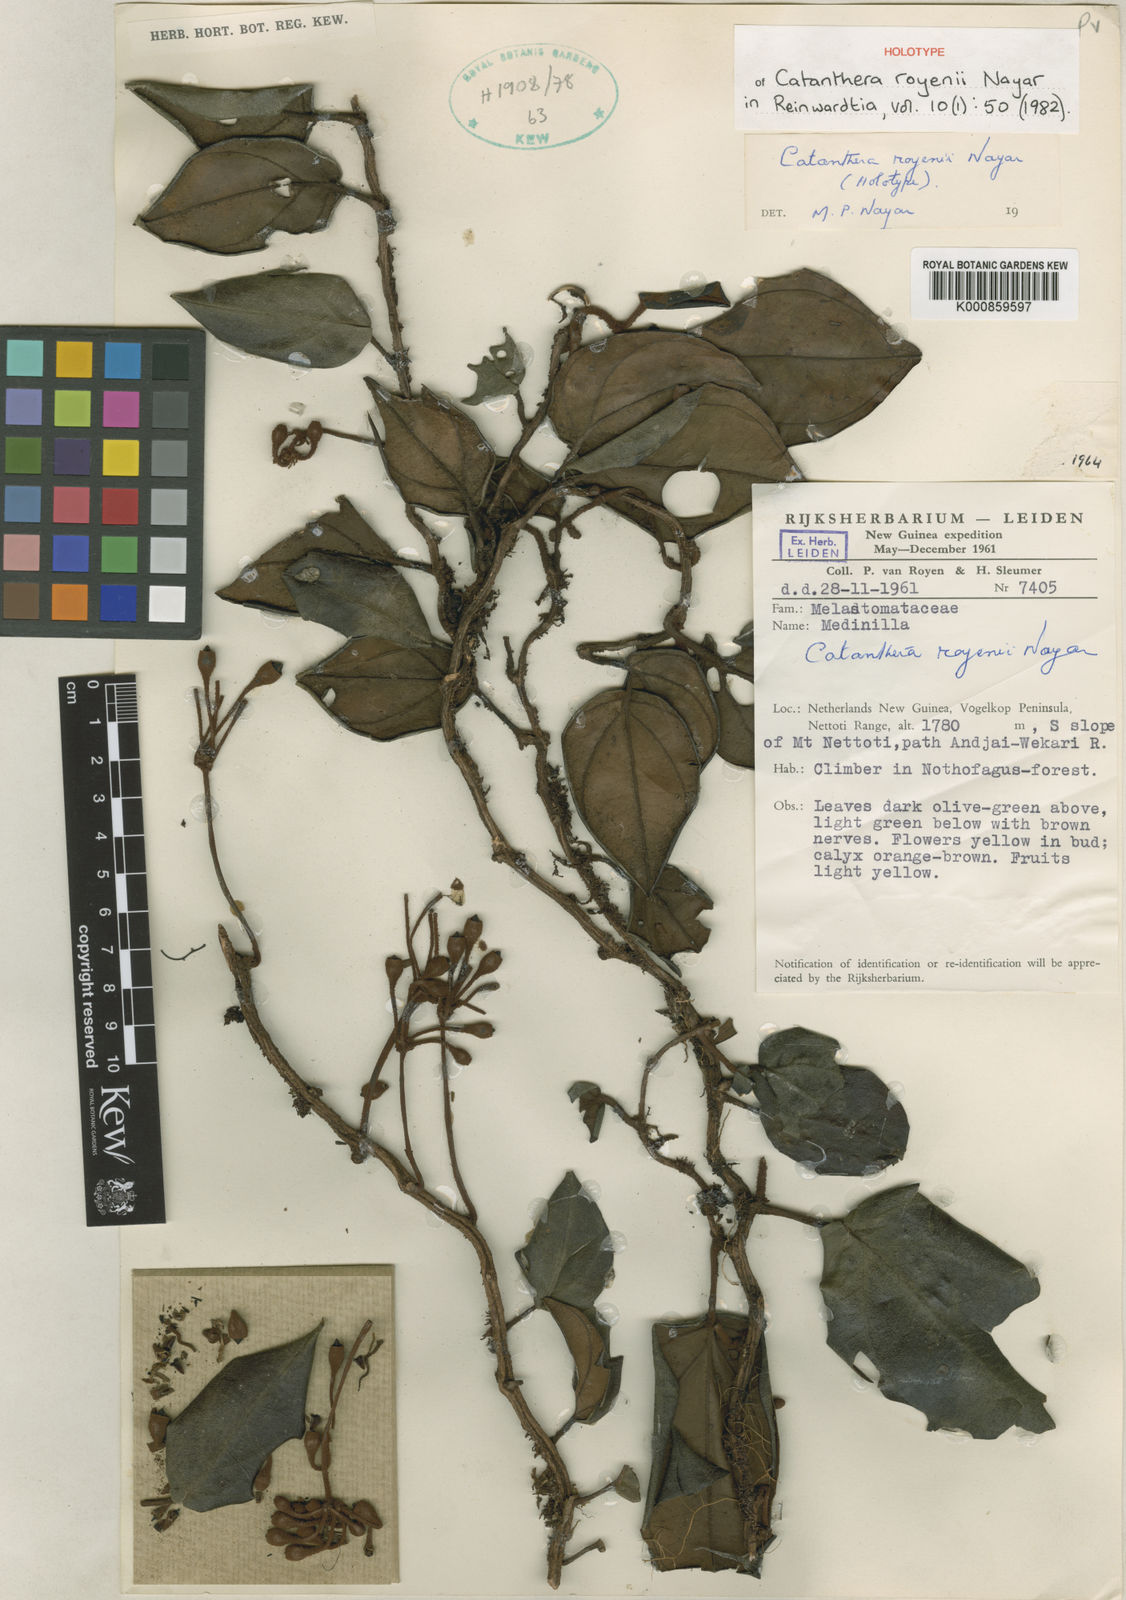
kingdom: Plantae
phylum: Tracheophyta
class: Magnoliopsida
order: Myrtales
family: Melastomataceae
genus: Catanthera
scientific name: Catanthera royenii
